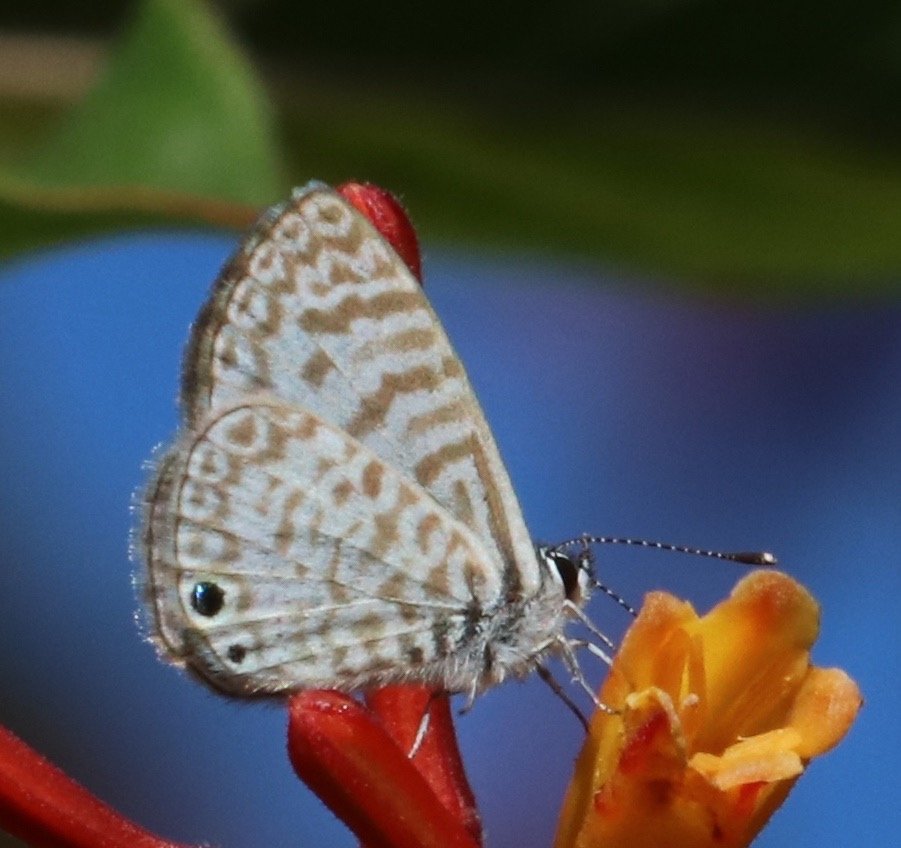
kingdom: Animalia
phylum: Arthropoda
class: Insecta
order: Lepidoptera
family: Lycaenidae
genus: Leptotes
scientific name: Leptotes cassius
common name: Cassius Blue
